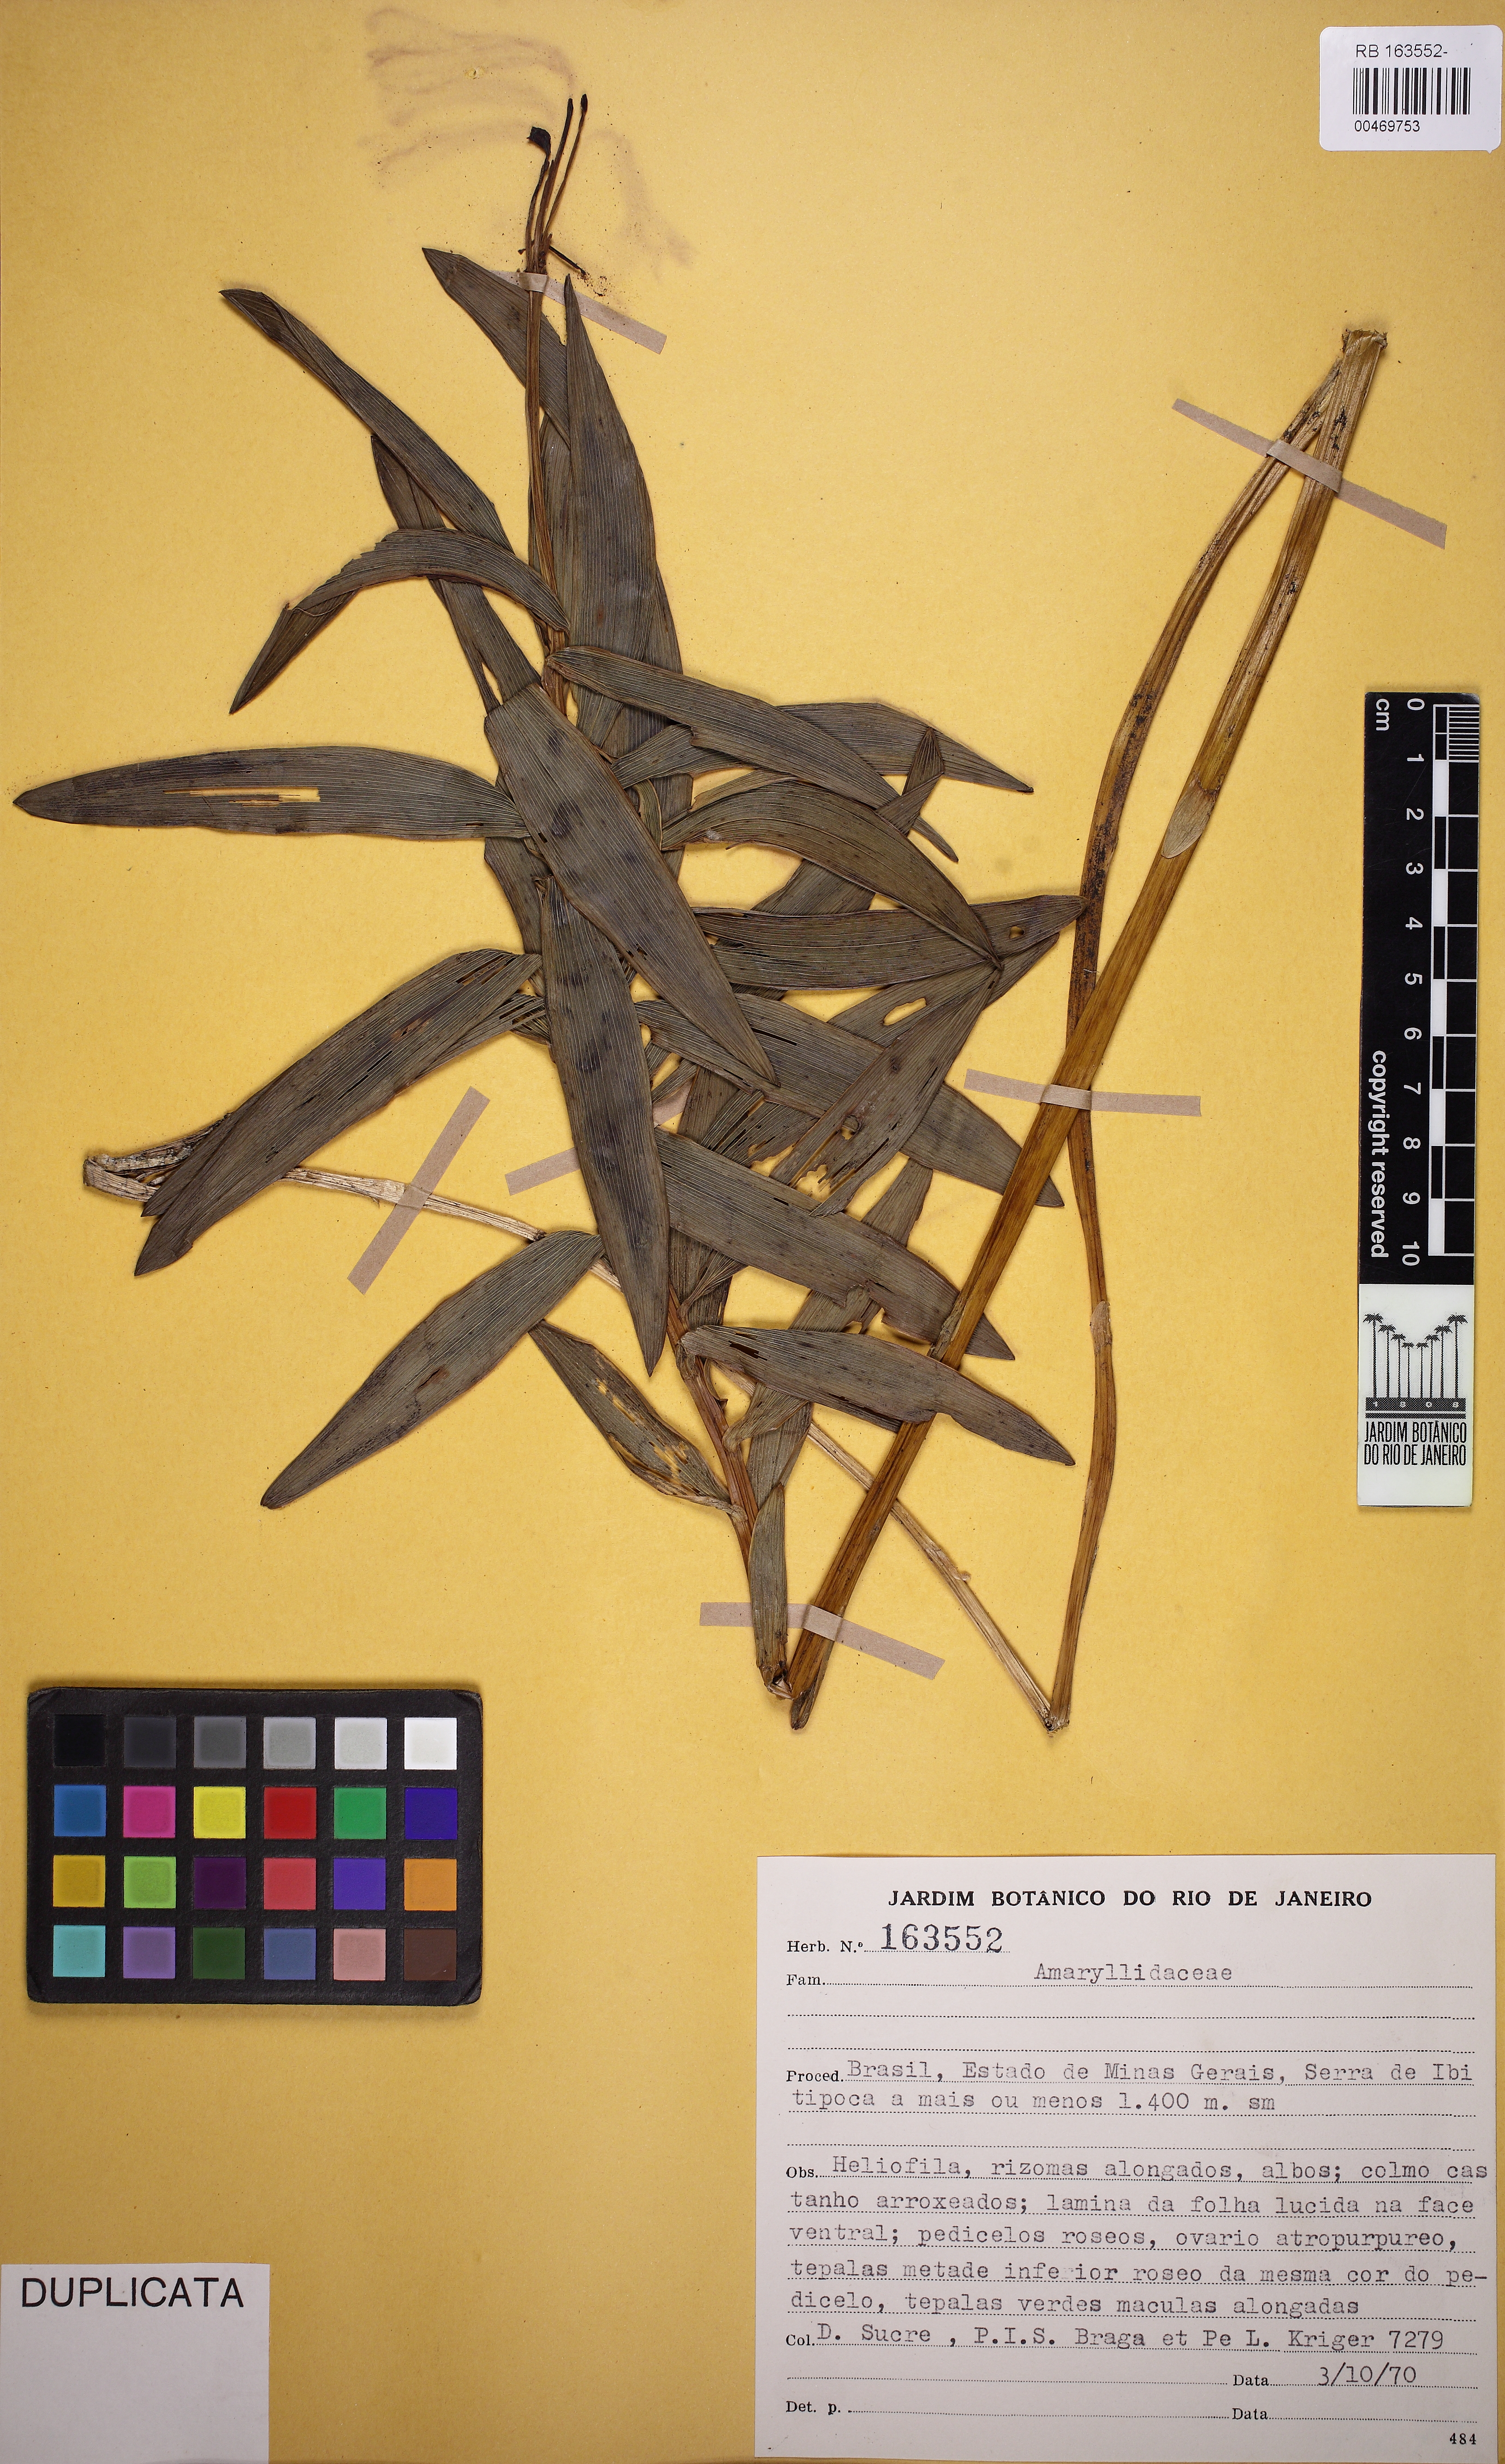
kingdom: Plantae
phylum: Tracheophyta
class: Liliopsida
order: Liliales
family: Alstroemeriaceae
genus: Alstroemeria
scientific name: Alstroemeria
